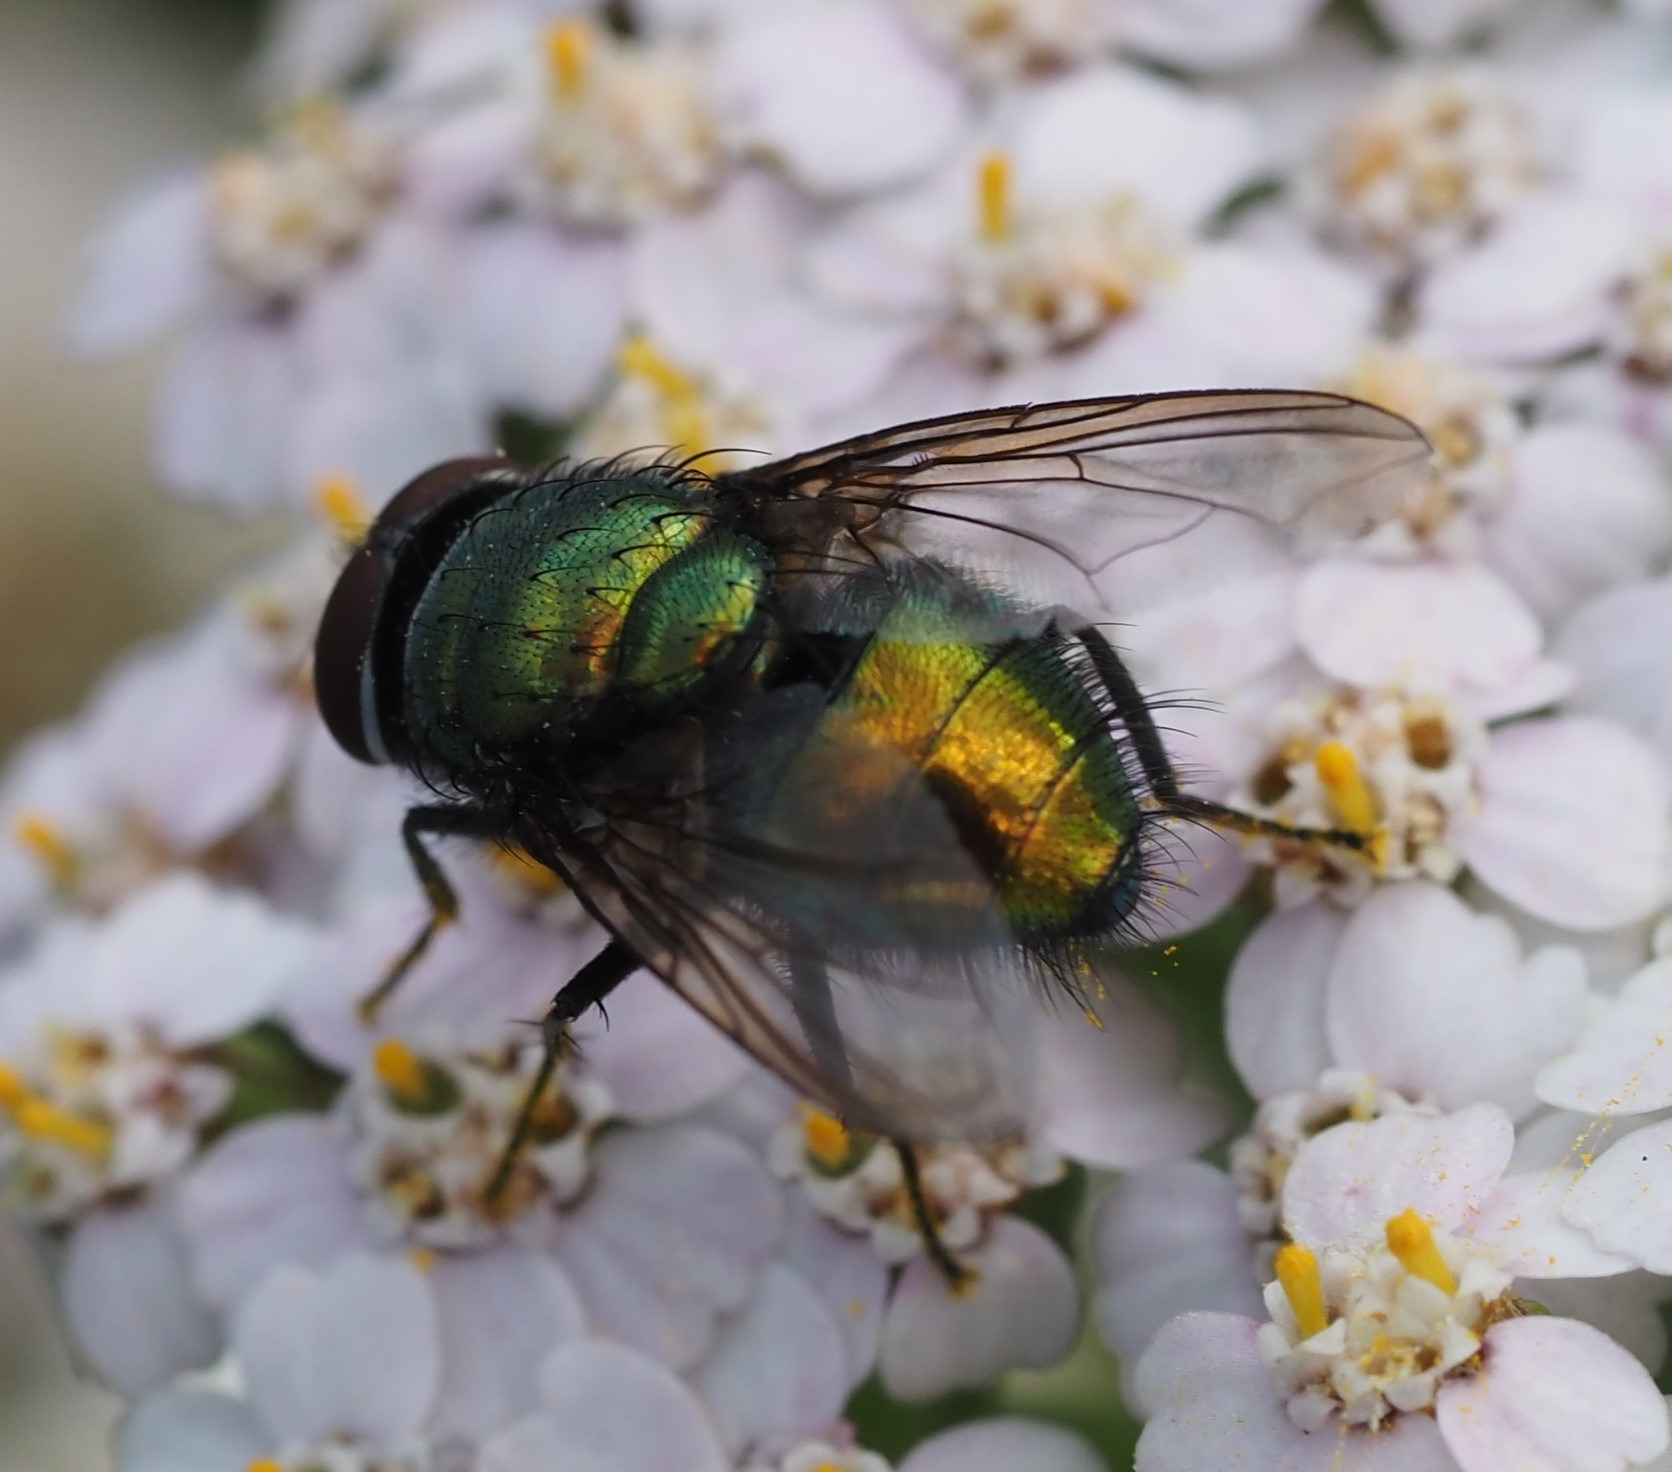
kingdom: Animalia
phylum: Arthropoda
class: Insecta
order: Diptera
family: Calliphoridae
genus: Lucilia
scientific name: Lucilia
